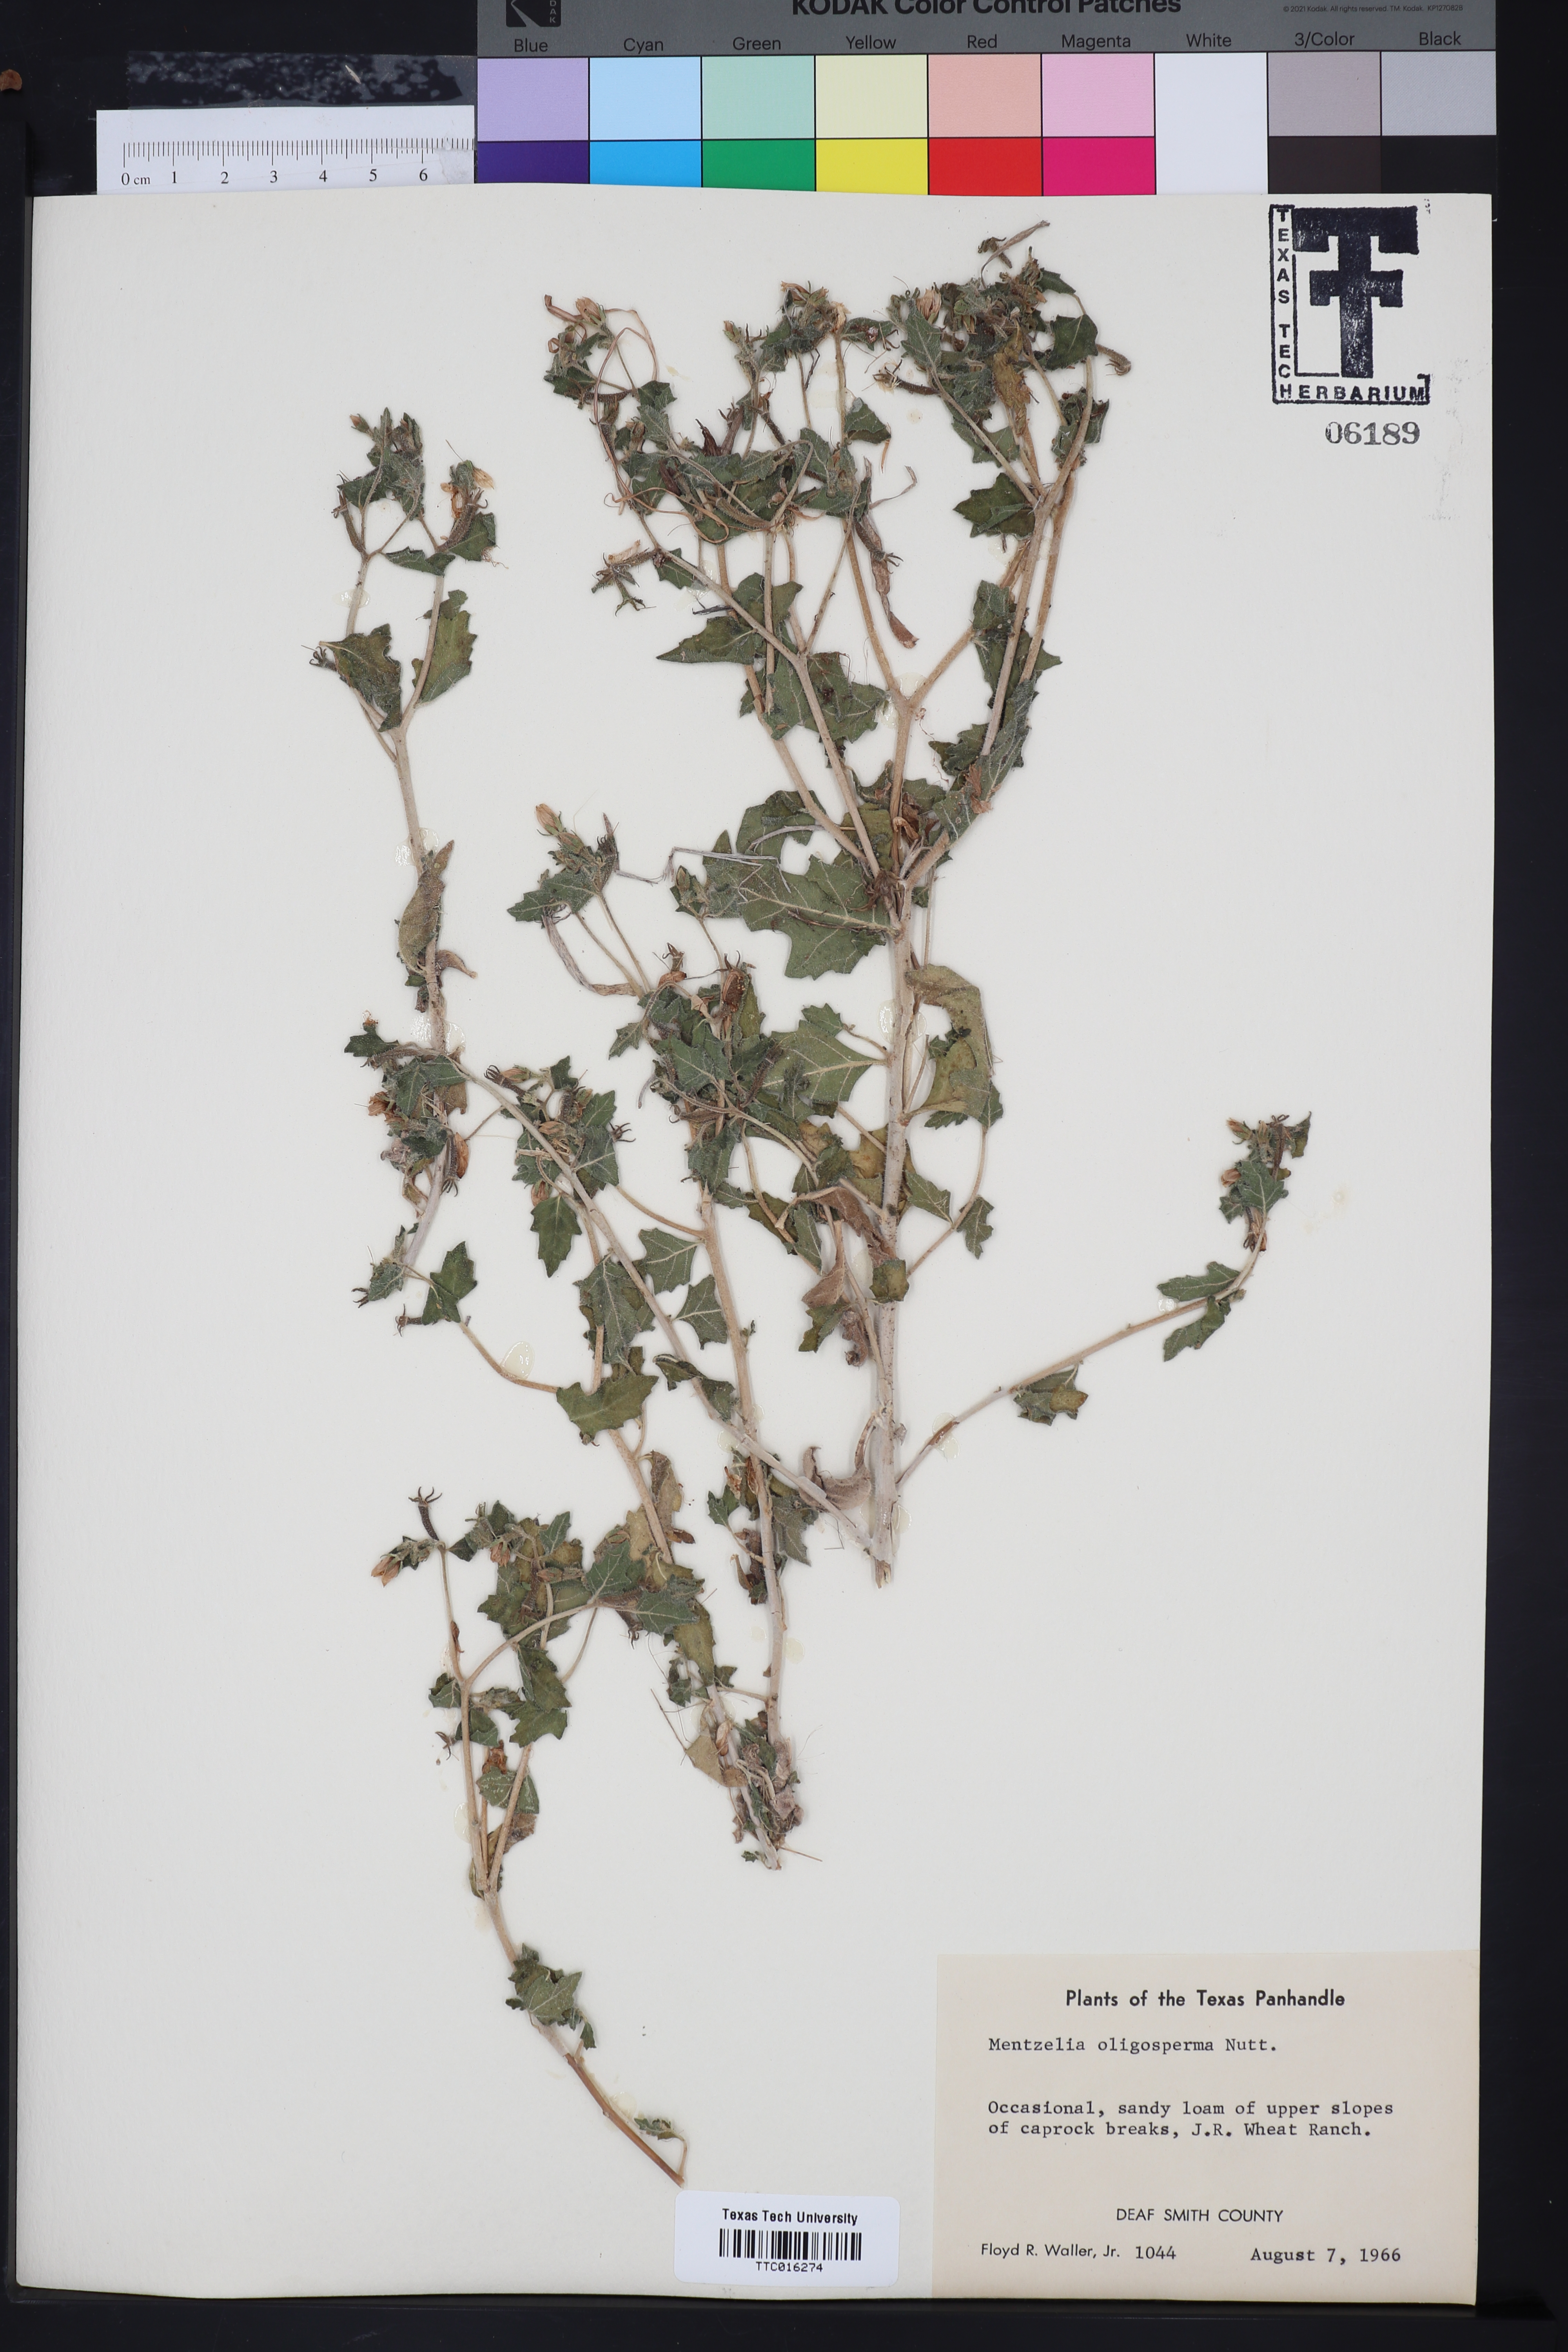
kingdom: Plantae
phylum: Tracheophyta
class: Magnoliopsida
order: Cornales
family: Loasaceae
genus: Mentzelia
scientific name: Mentzelia oligosperma
